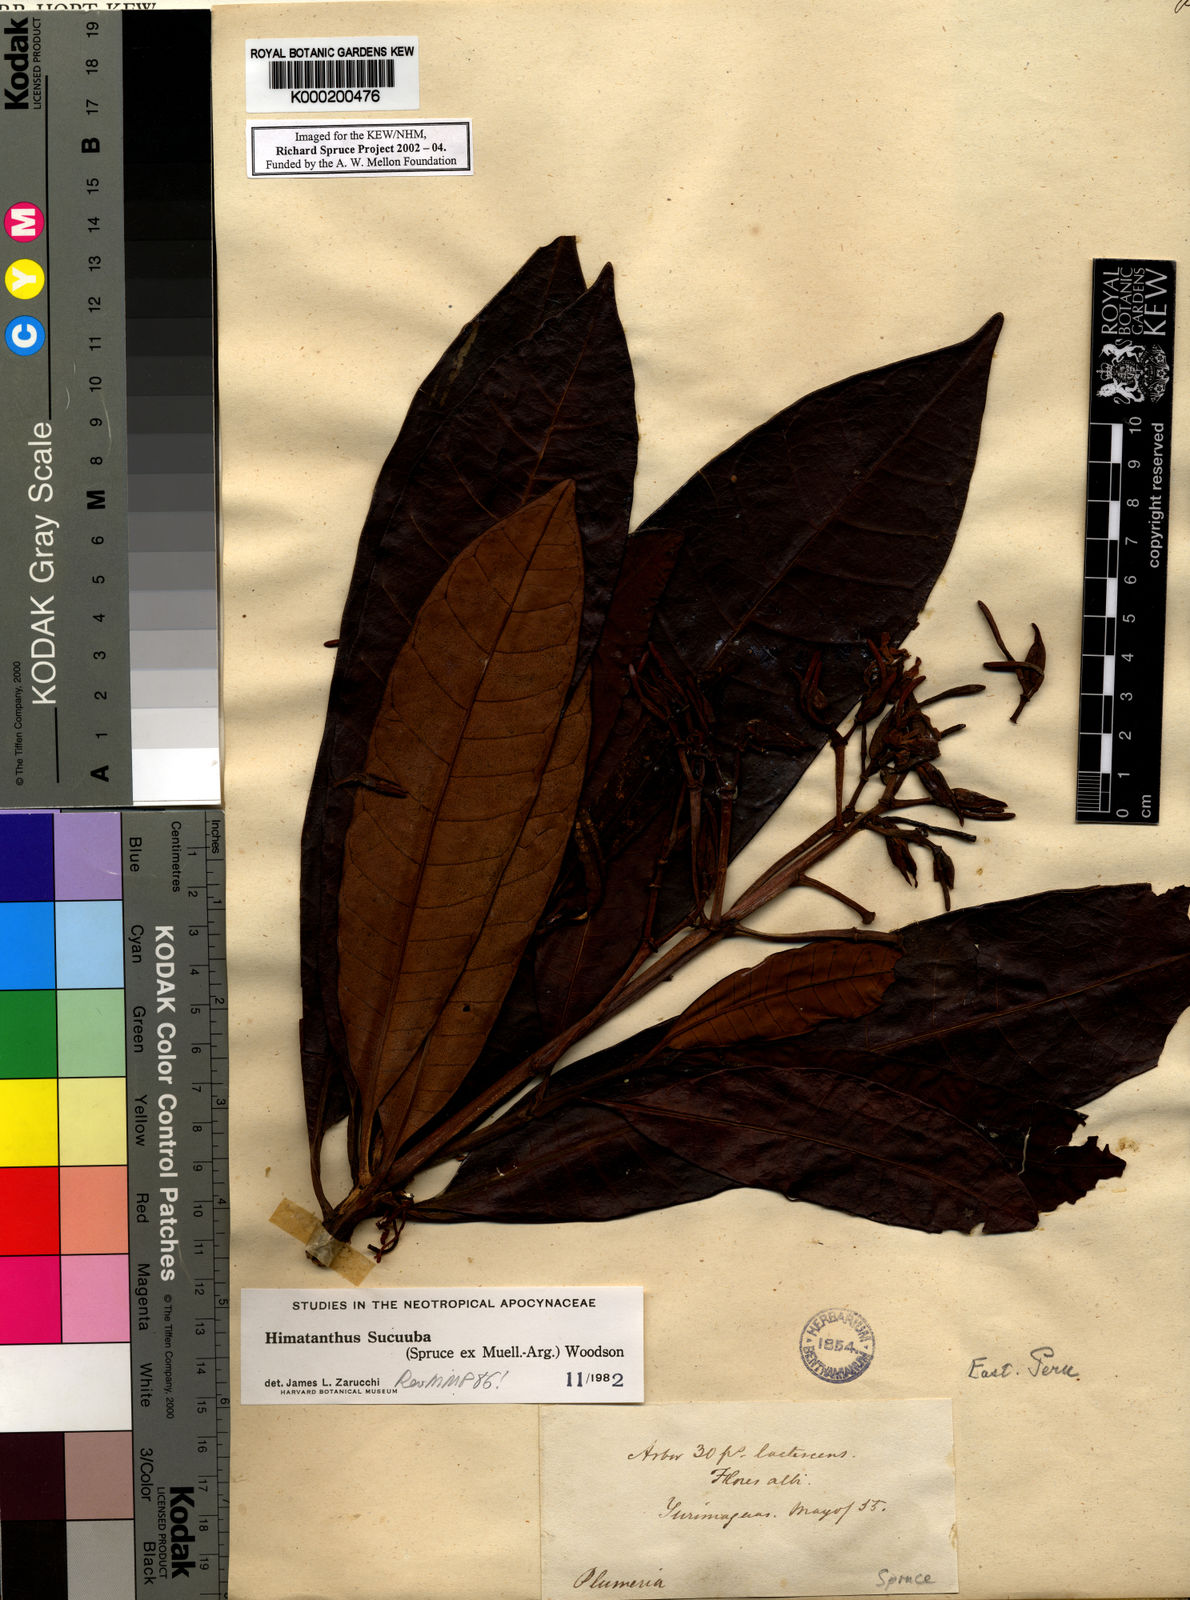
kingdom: Plantae
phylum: Tracheophyta
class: Magnoliopsida
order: Gentianales
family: Apocynaceae
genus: Himatanthus
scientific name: Himatanthus
